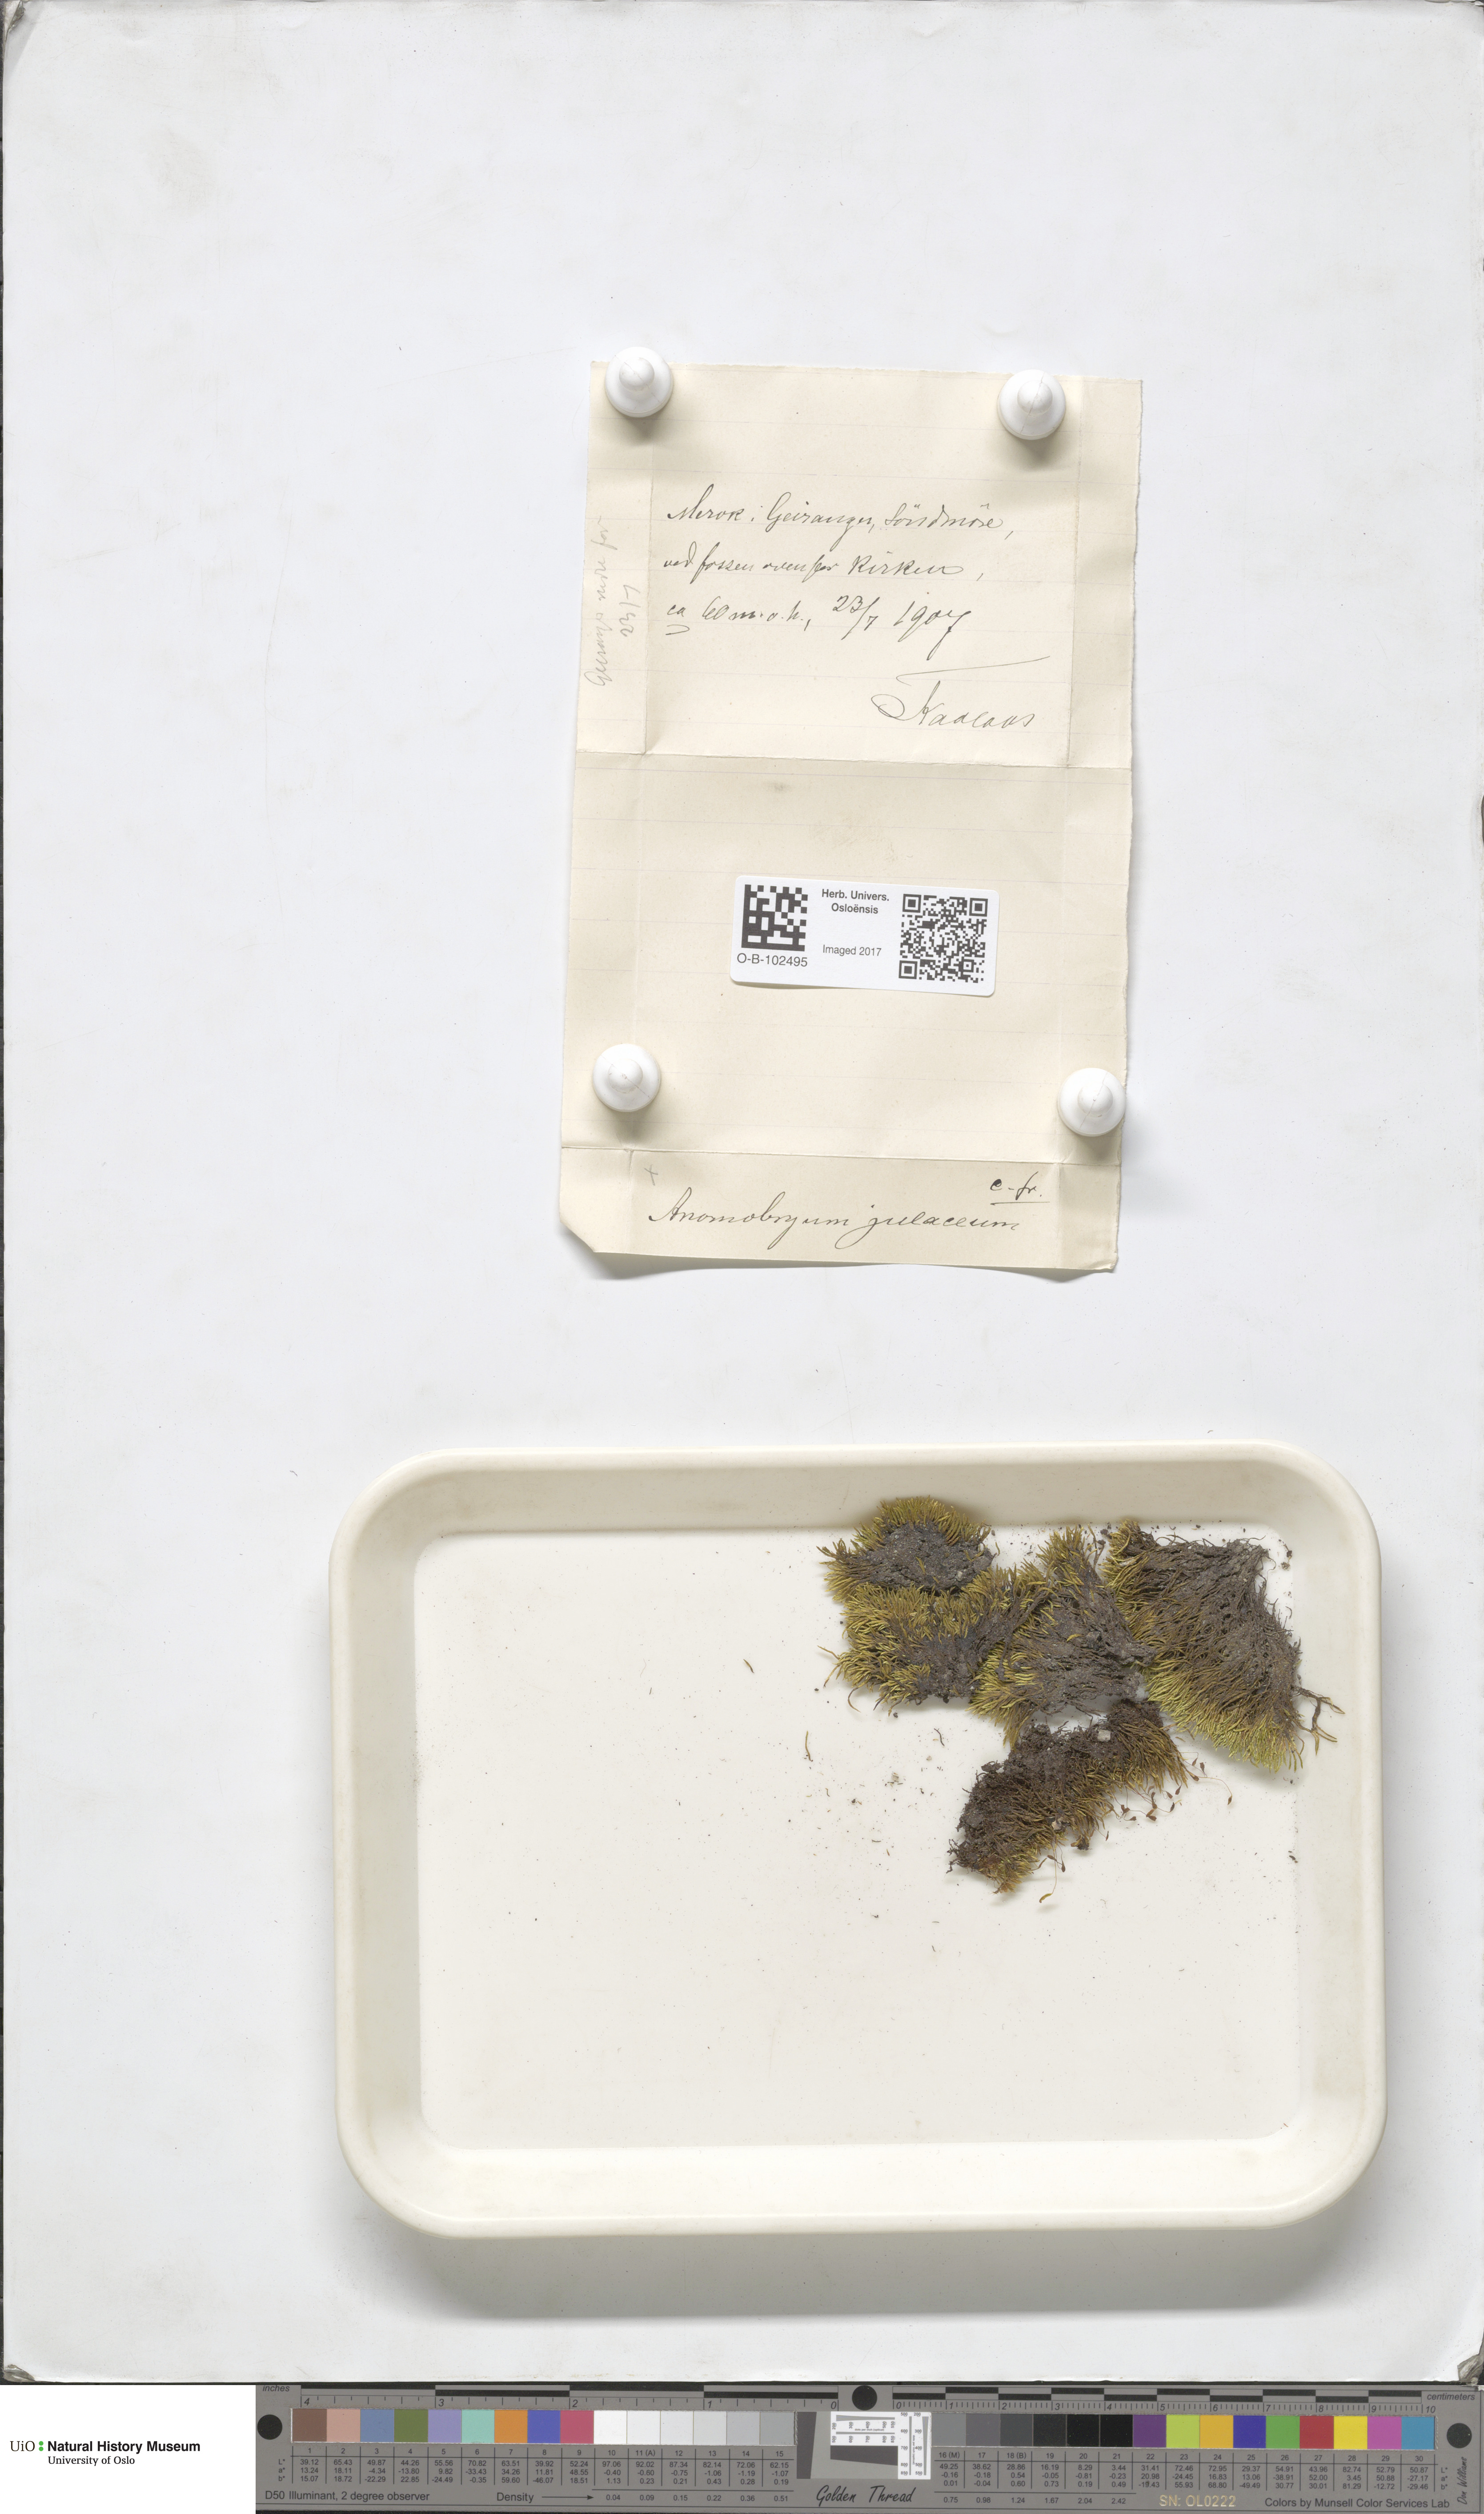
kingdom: Plantae
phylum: Bryophyta
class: Bryopsida
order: Bryales
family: Bryaceae
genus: Anomobryum
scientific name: Anomobryum julaceum
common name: Slender silver moss
